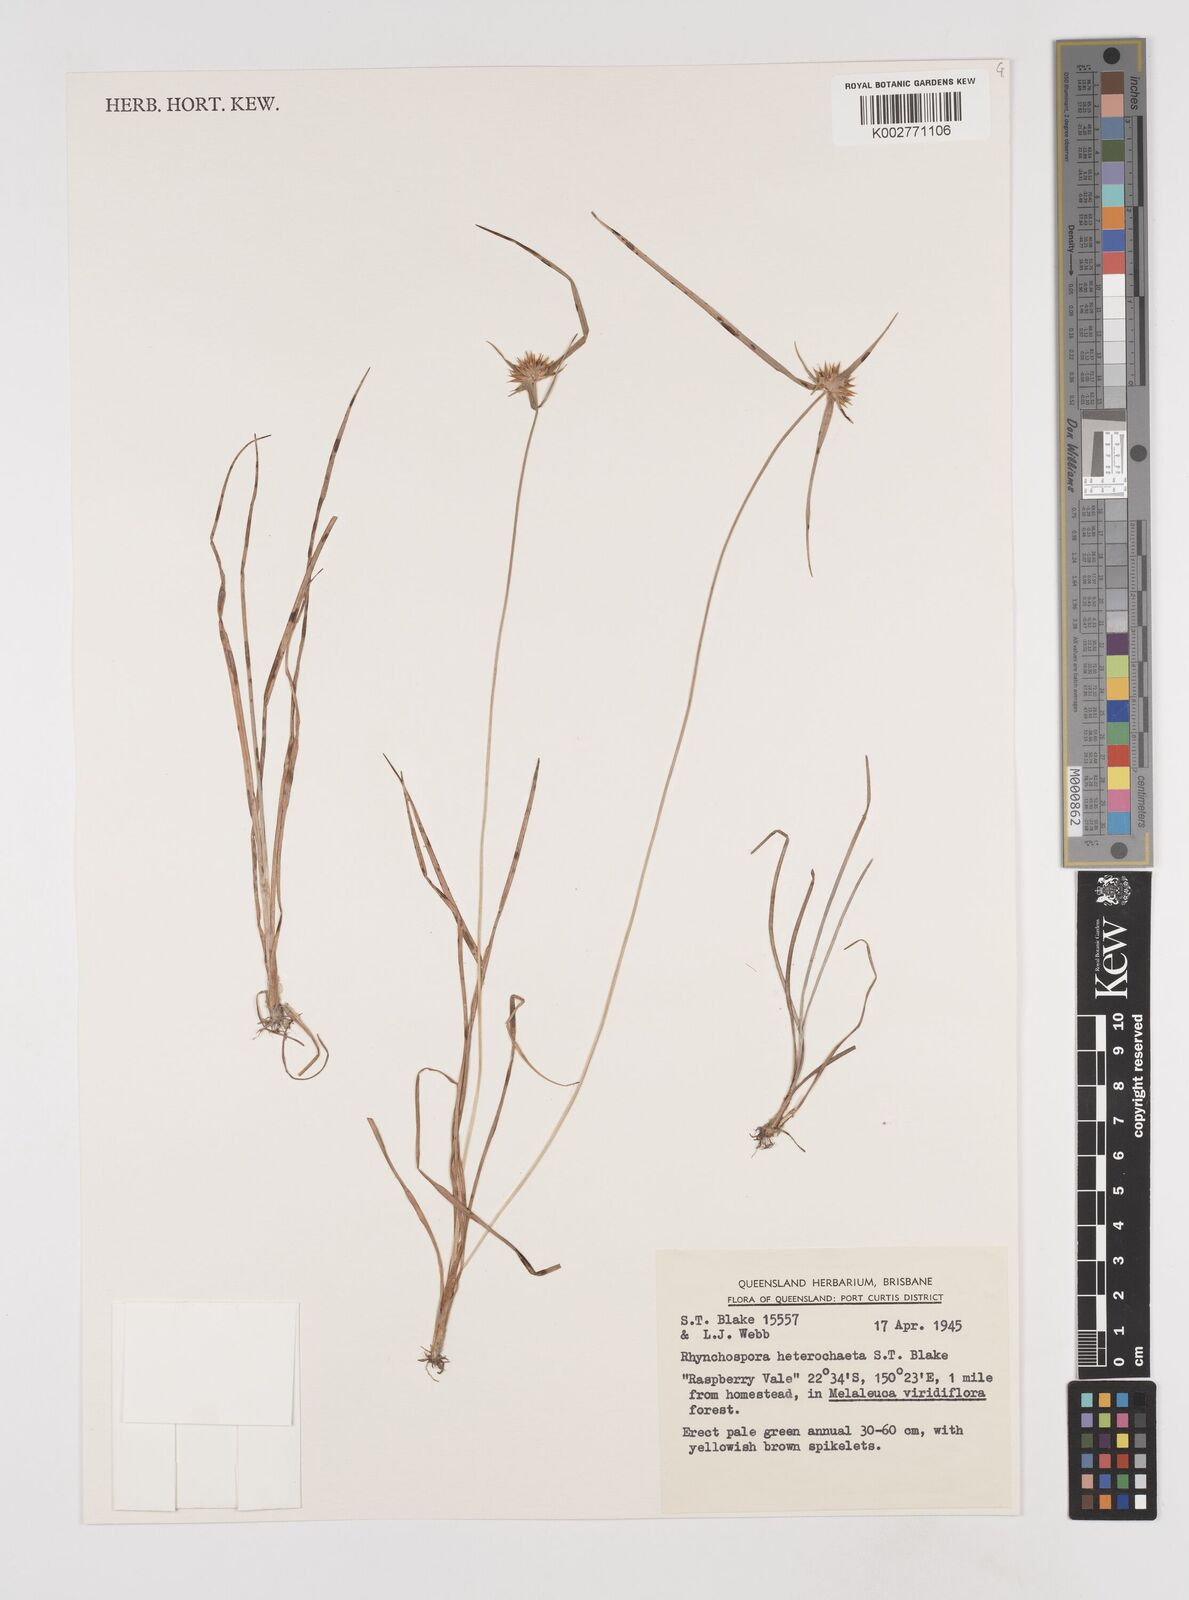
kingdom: Plantae
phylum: Tracheophyta
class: Liliopsida
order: Poales
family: Cyperaceae
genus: Rhynchospora
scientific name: Rhynchospora heterochaeta
